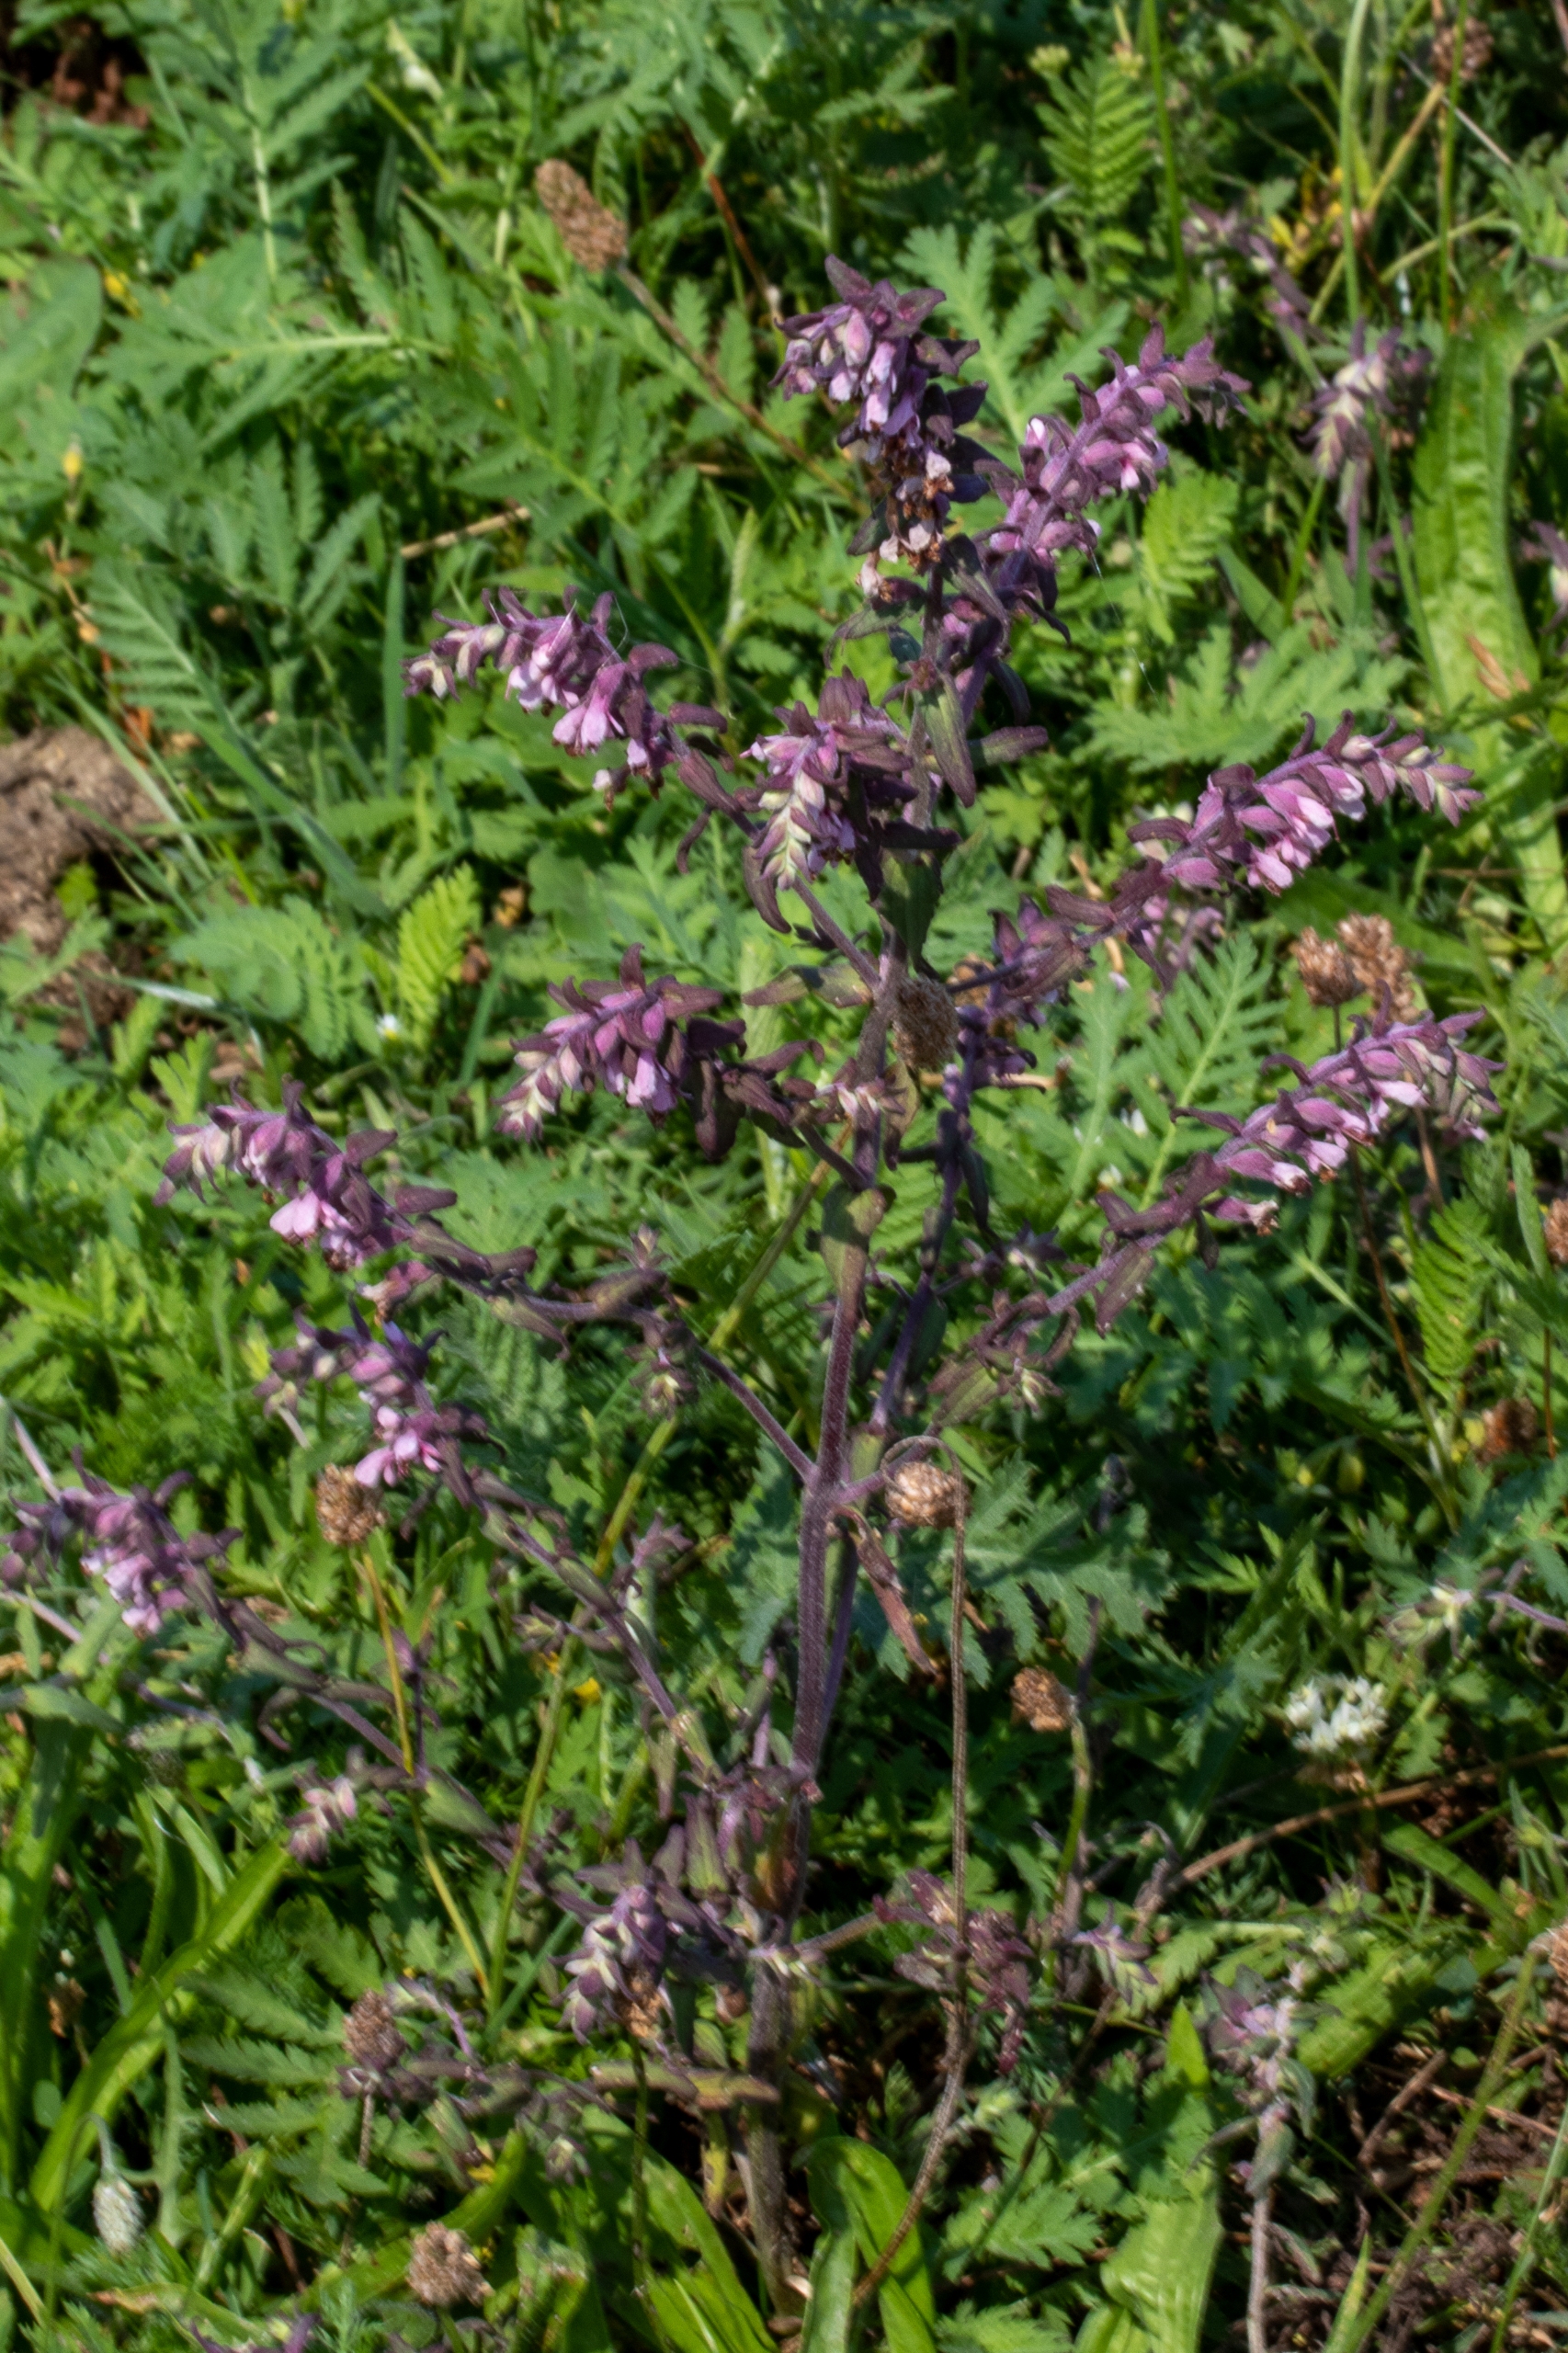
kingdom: Plantae
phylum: Tracheophyta
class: Magnoliopsida
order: Lamiales
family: Orobanchaceae
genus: Odontites
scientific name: Odontites vulgaris
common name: Høst-rødtop
